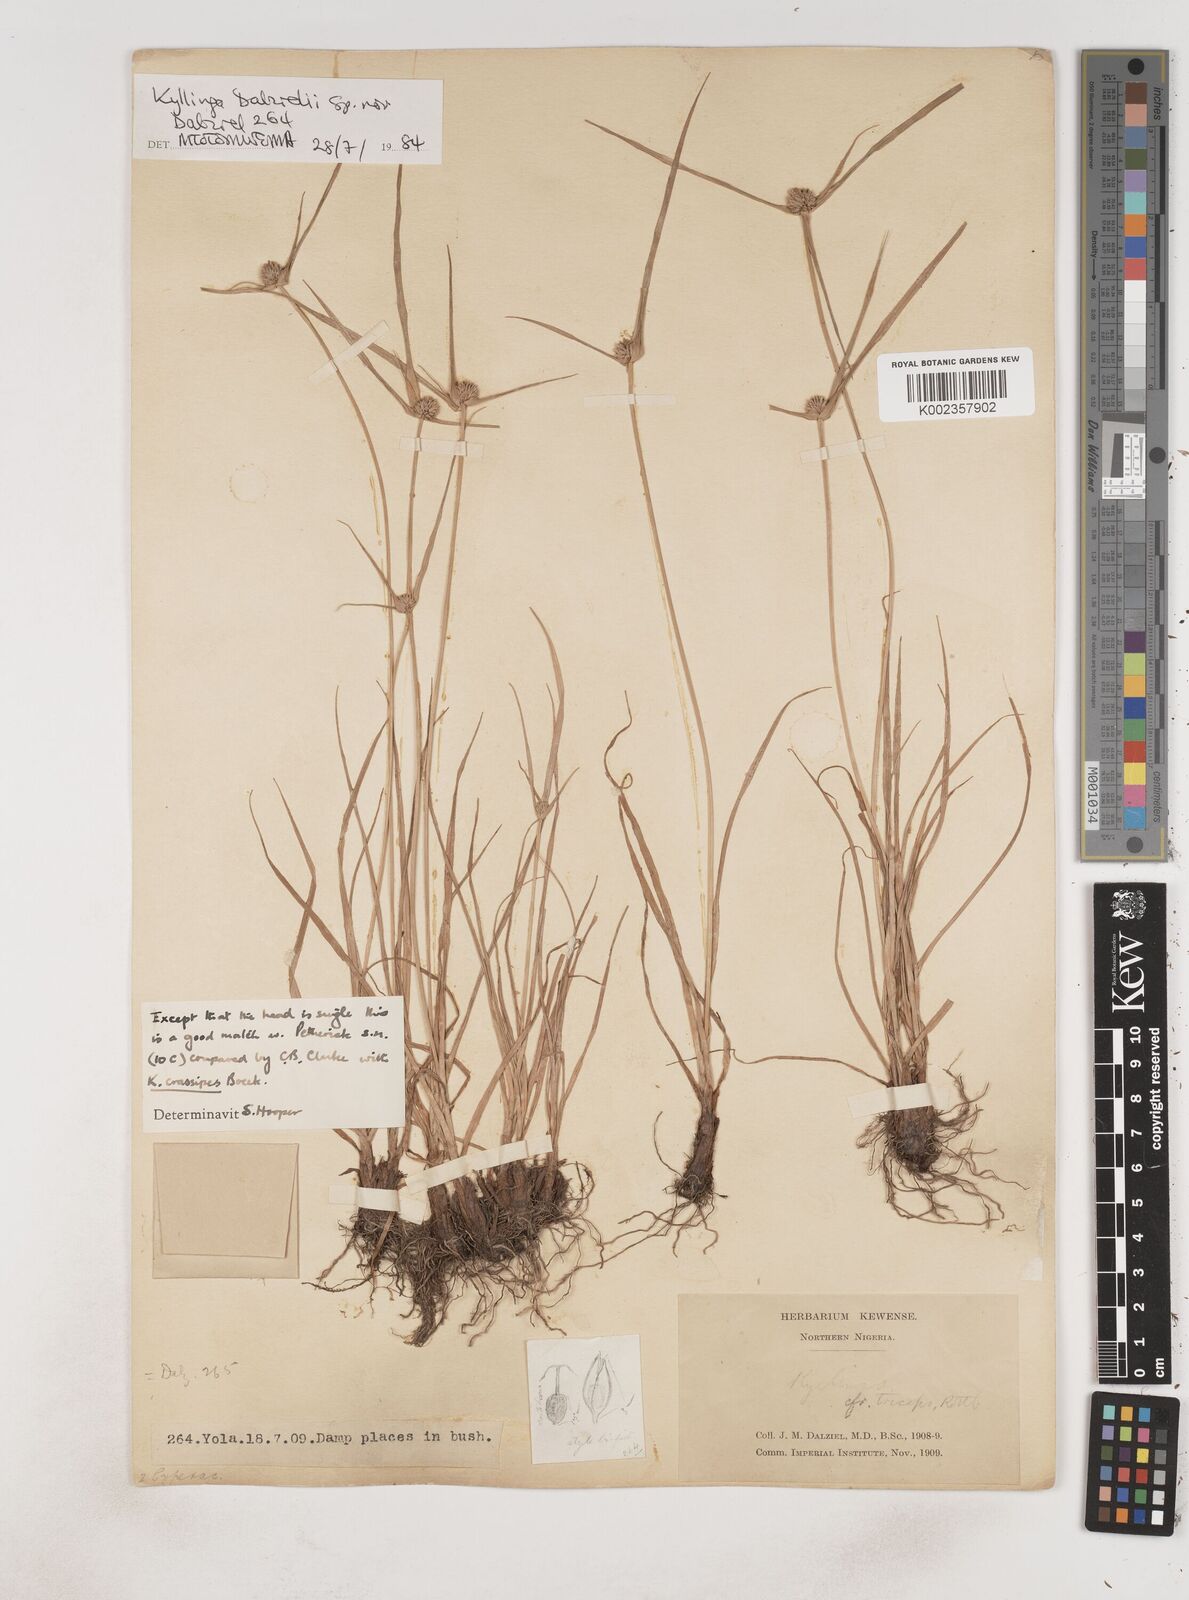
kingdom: Plantae
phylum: Tracheophyta
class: Liliopsida
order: Poales
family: Cyperaceae
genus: Cyperus
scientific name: Cyperus crassipes
